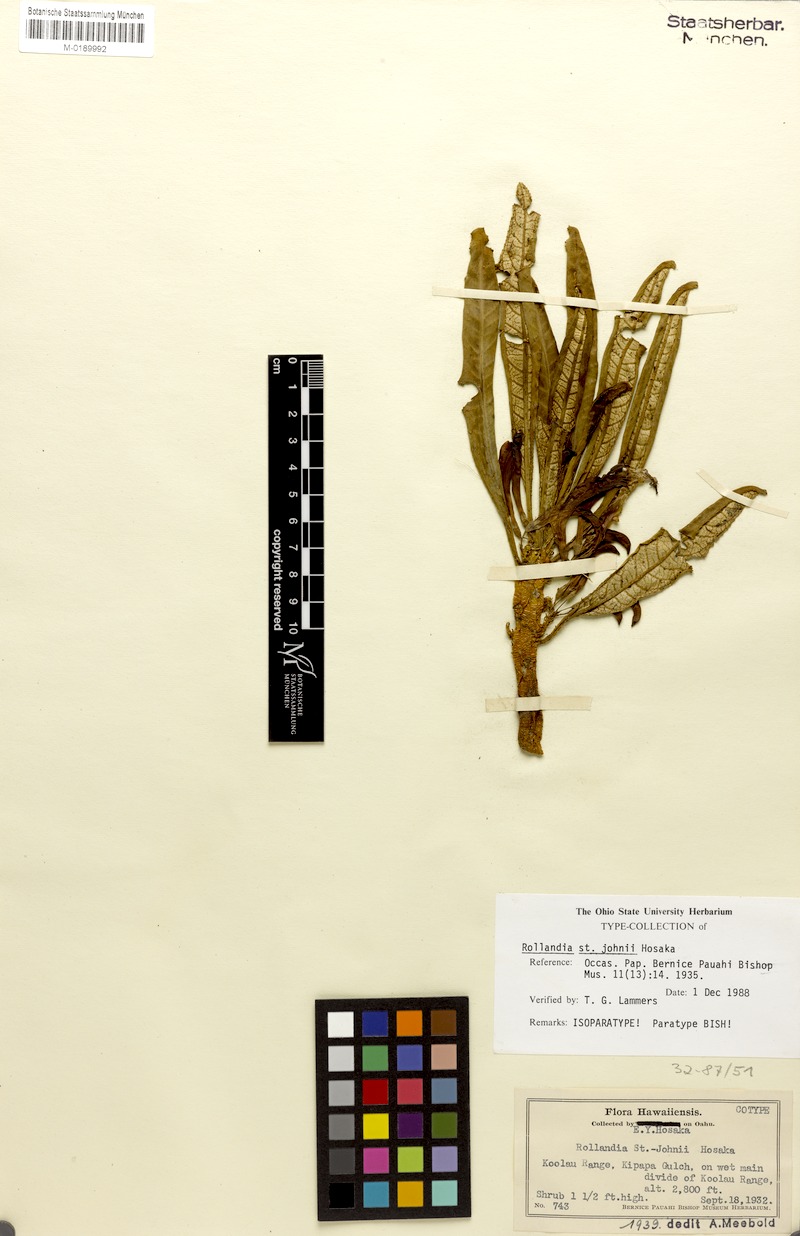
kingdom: Plantae
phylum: Tracheophyta
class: Magnoliopsida
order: Asterales
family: Campanulaceae
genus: Cyanea
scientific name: Cyanea
